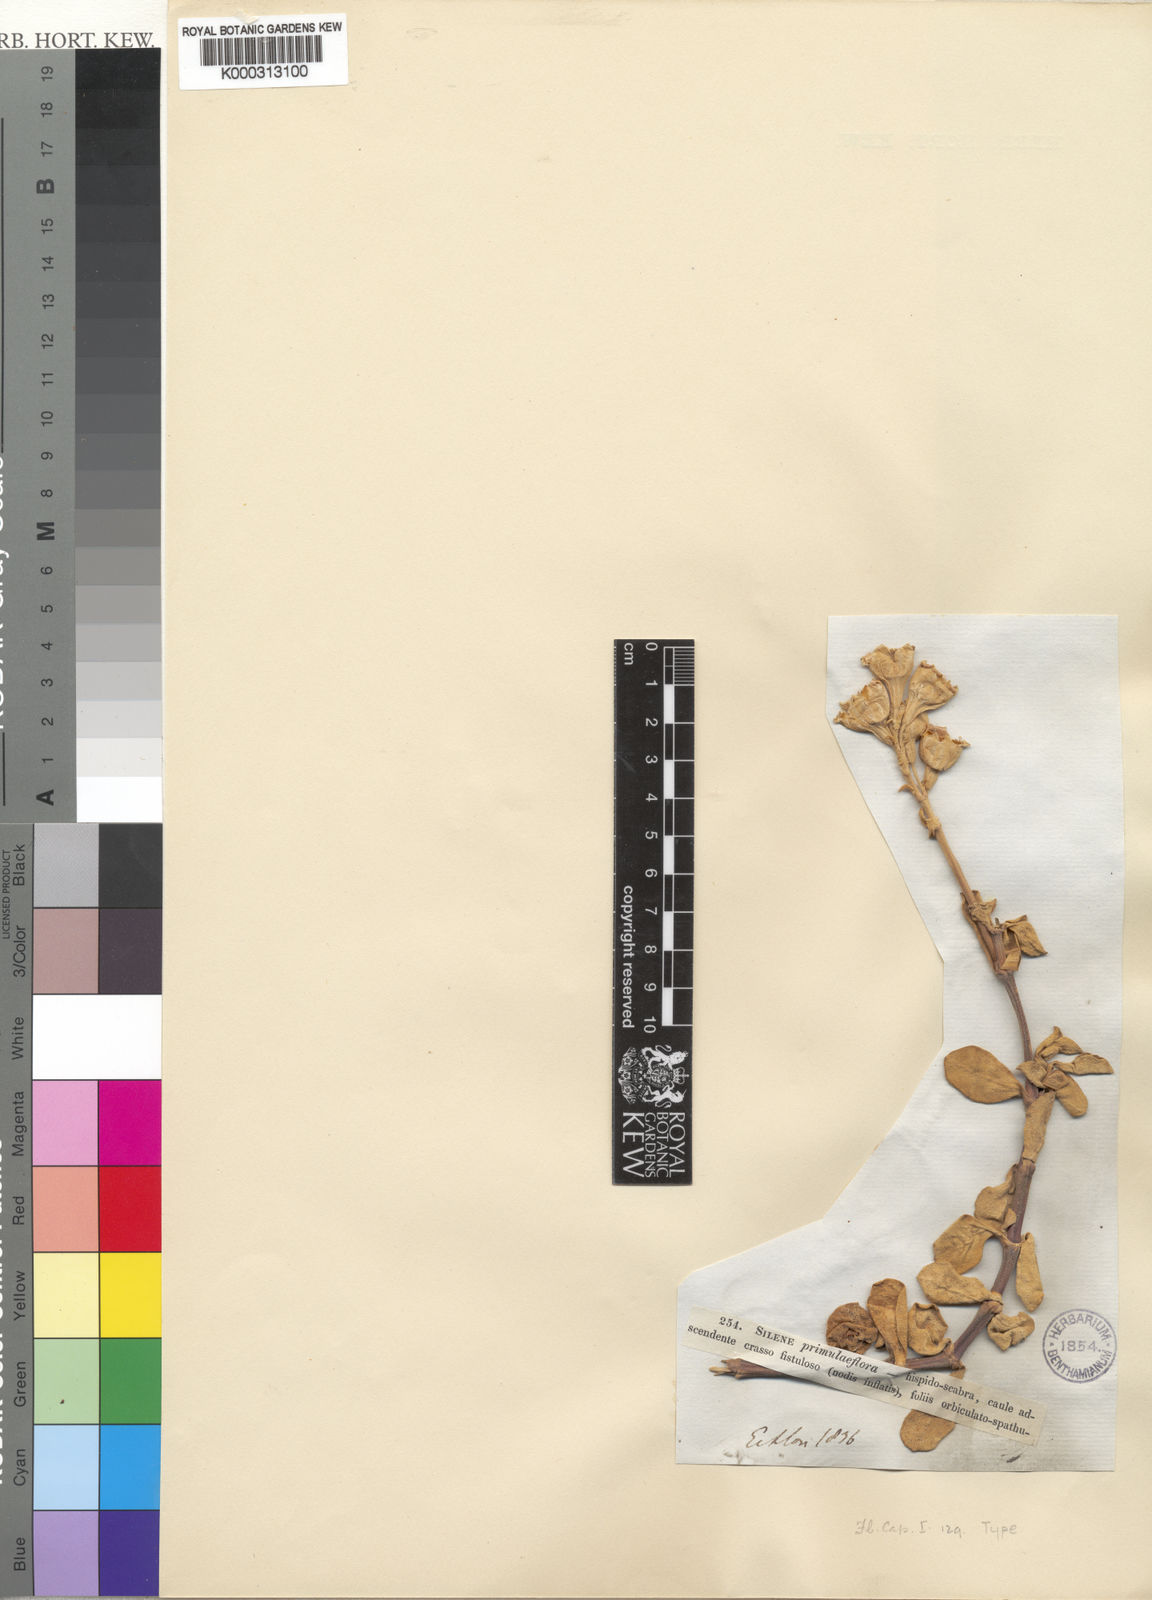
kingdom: Plantae
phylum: Tracheophyta
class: Magnoliopsida
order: Caryophyllales
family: Caryophyllaceae
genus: Silene
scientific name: Silene crassifolia
